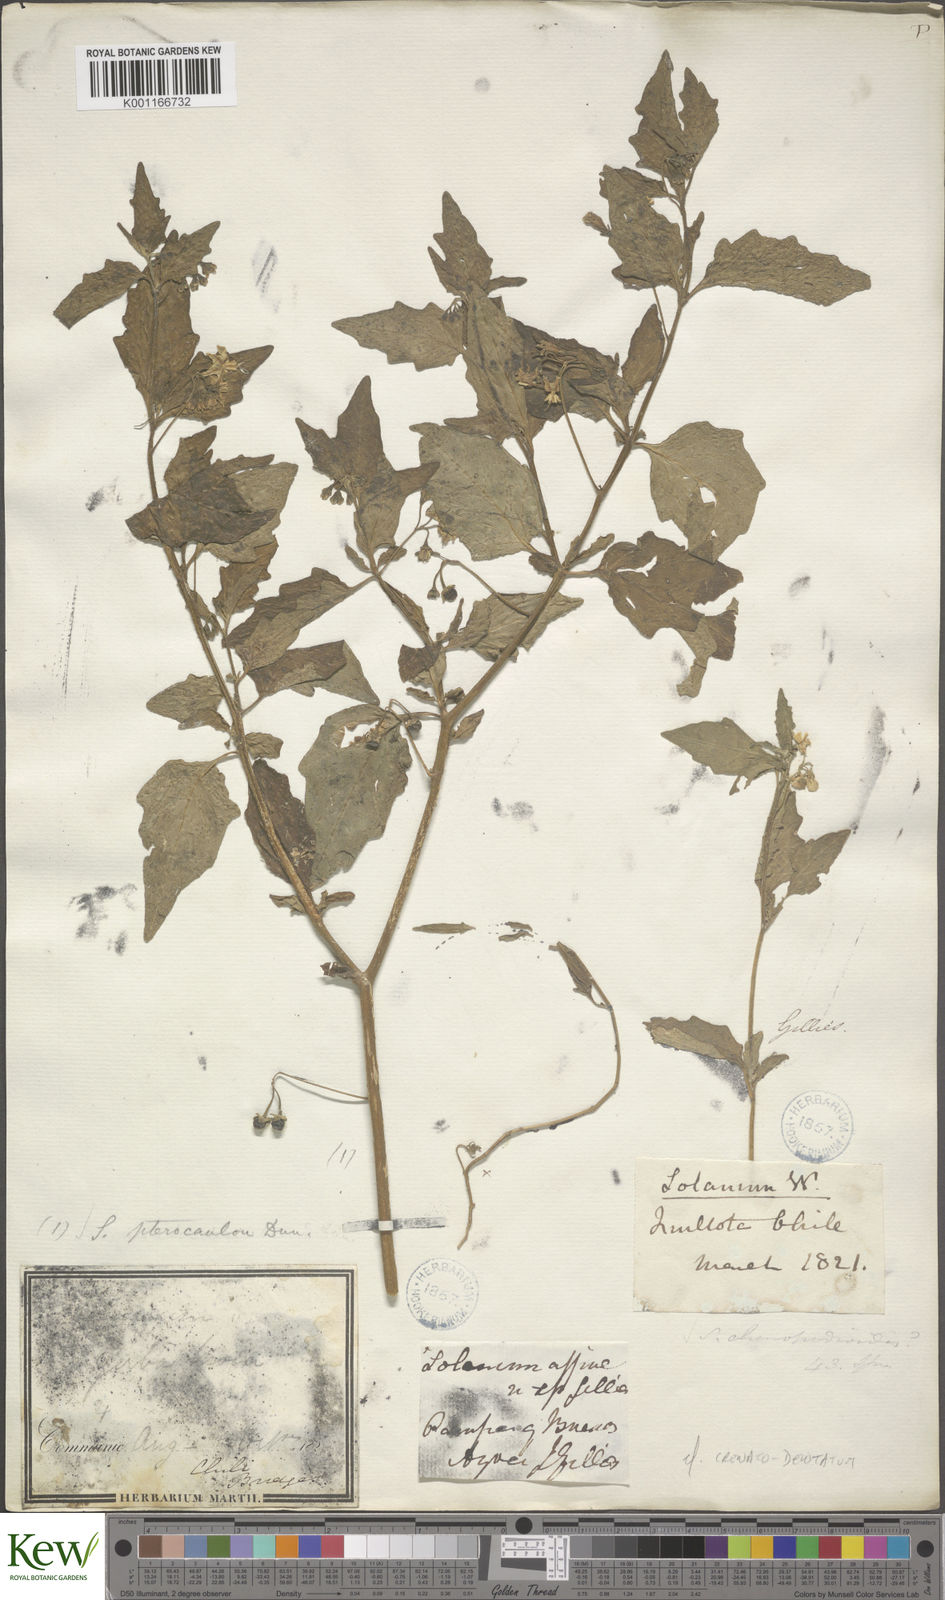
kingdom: Plantae
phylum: Tracheophyta
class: Magnoliopsida
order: Solanales
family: Solanaceae
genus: Solanum
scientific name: Solanum
